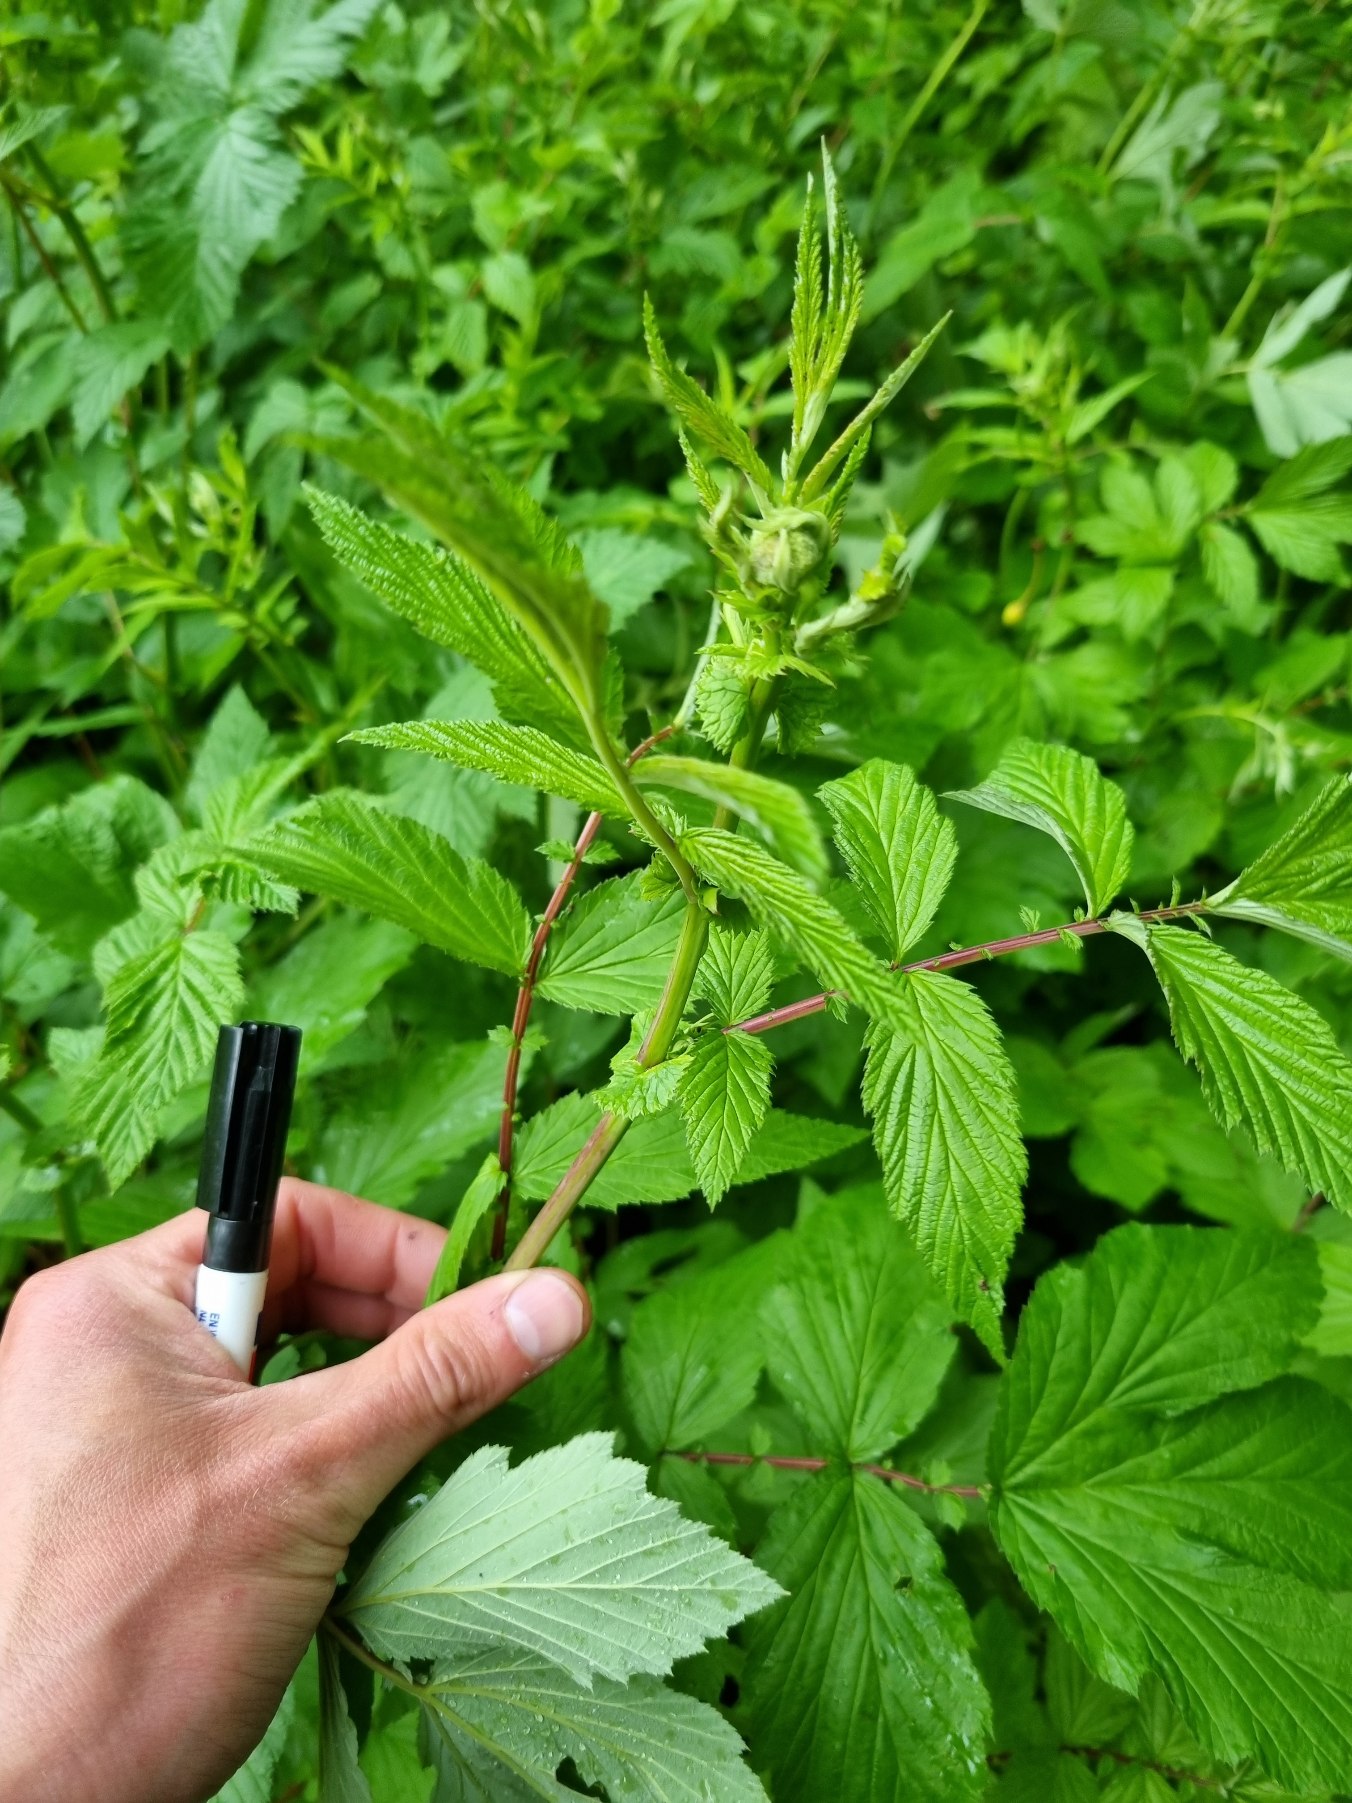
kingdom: Plantae
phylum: Tracheophyta
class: Magnoliopsida
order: Rosales
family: Rosaceae
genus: Filipendula
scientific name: Filipendula ulmaria
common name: Almindelig mjødurt
